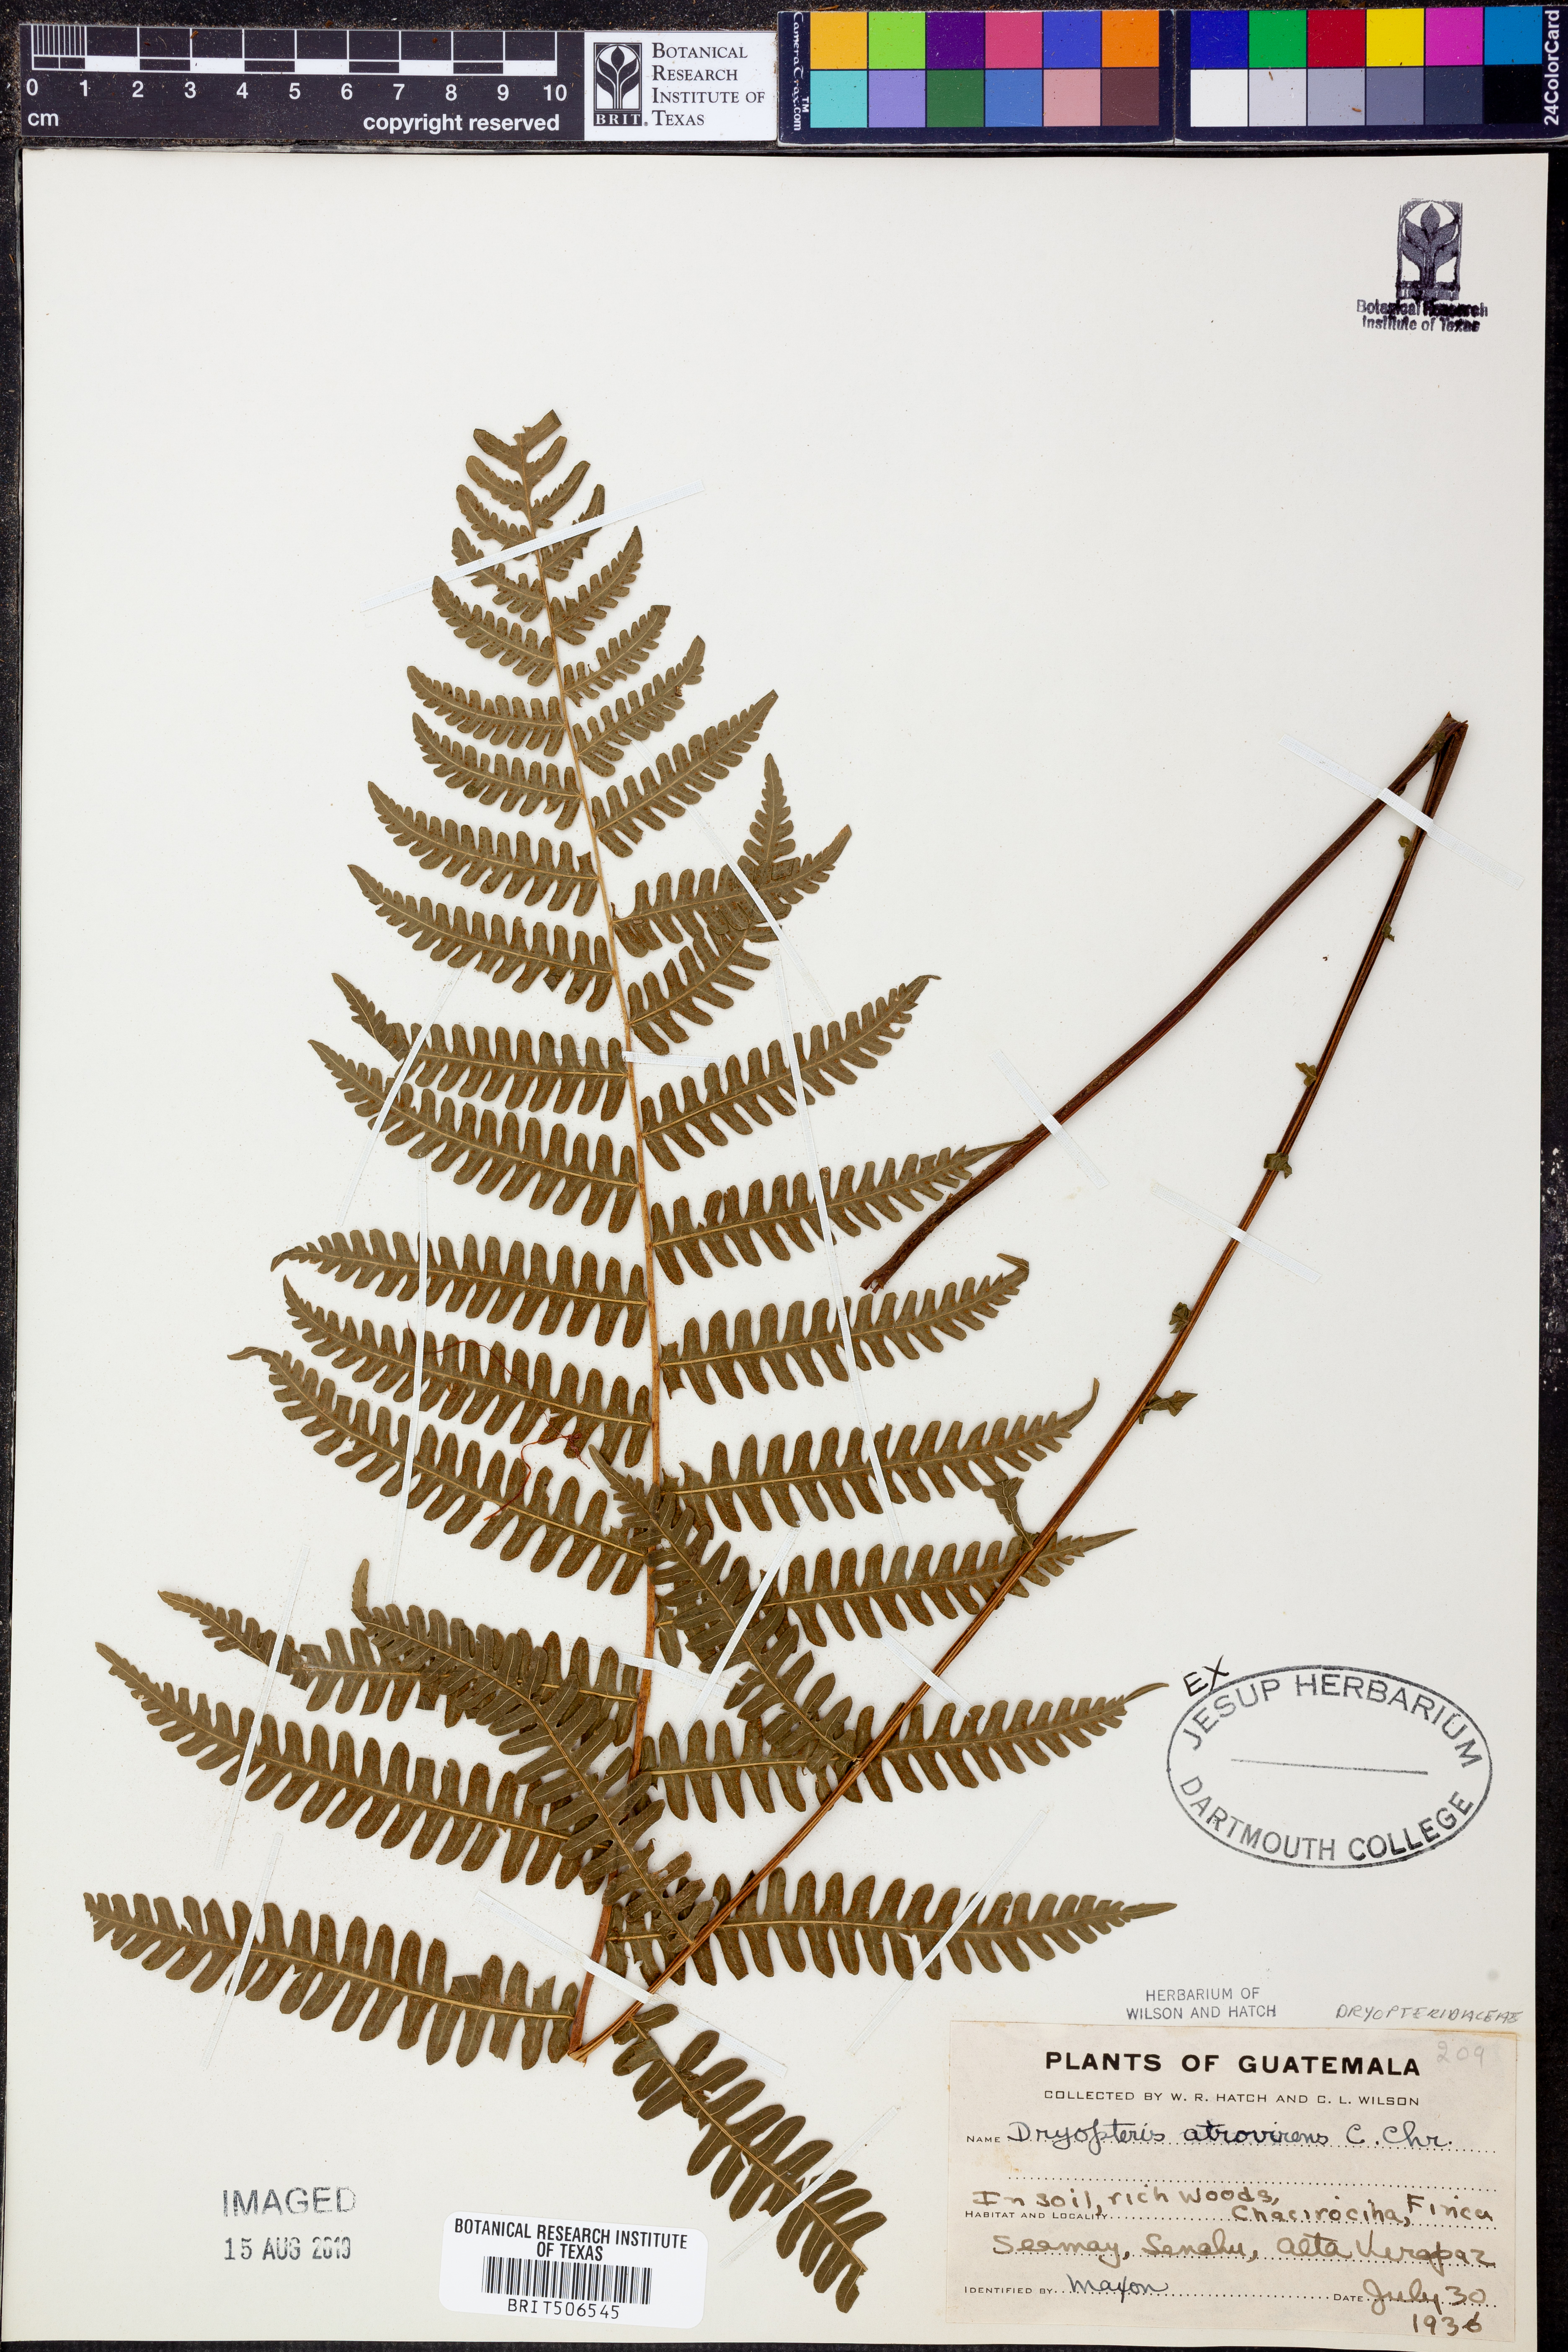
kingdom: Plantae
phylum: Tracheophyta
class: Polypodiopsida
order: Polypodiales
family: Thelypteridaceae
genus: Amauropelta
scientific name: Amauropelta atrovirens
